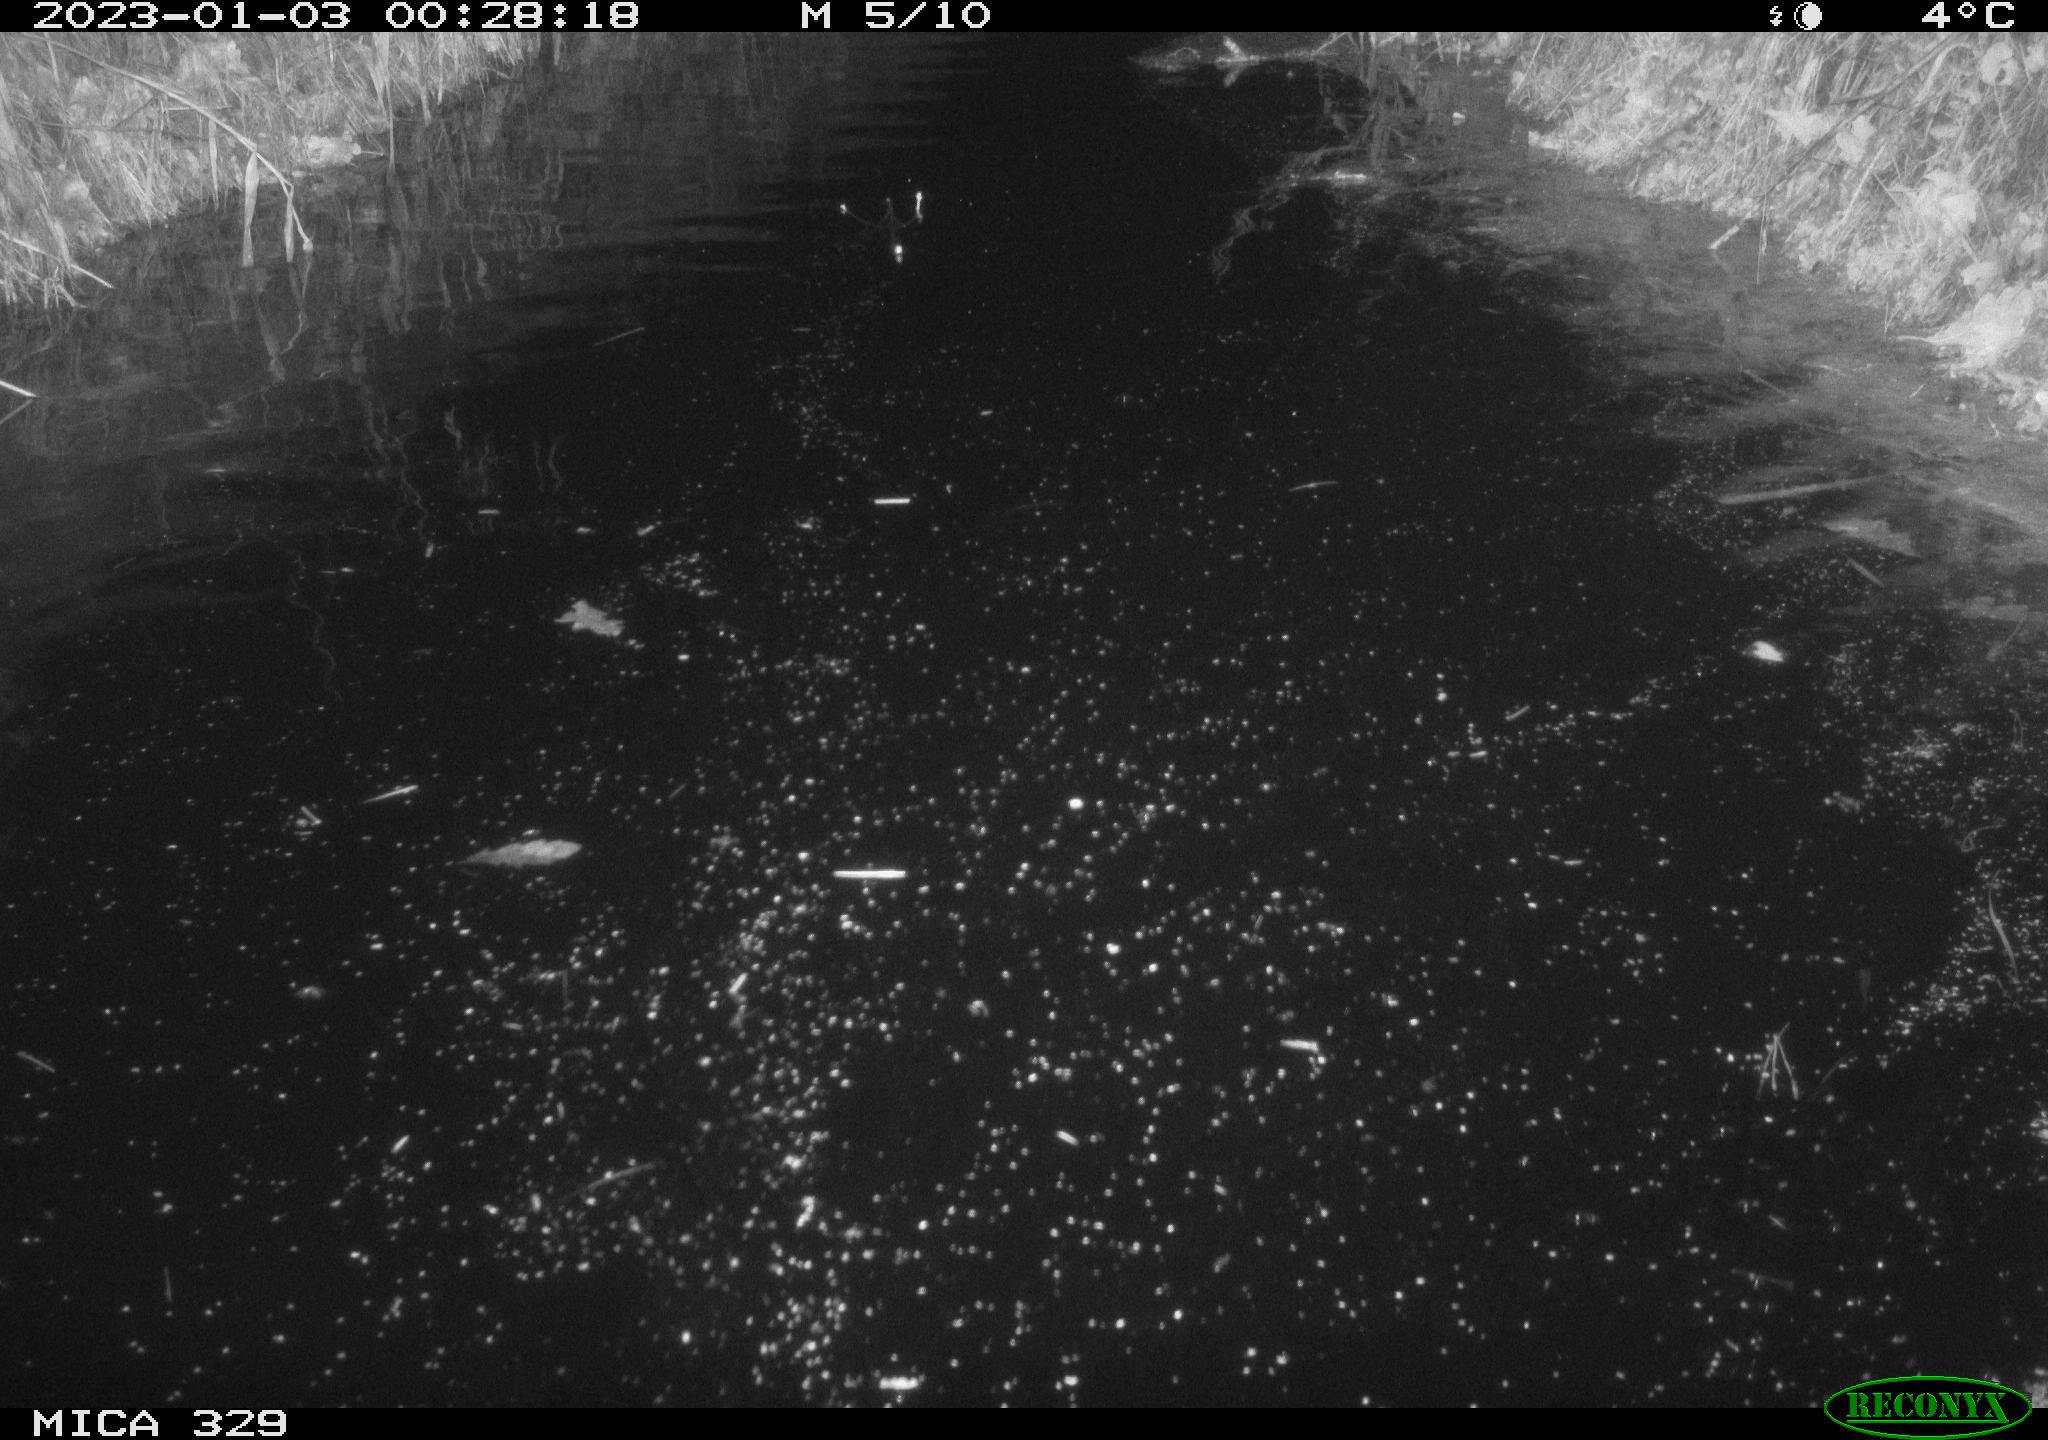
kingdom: Animalia
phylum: Chordata
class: Mammalia
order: Rodentia
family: Cricetidae
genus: Ondatra
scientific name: Ondatra zibethicus
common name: Muskrat
